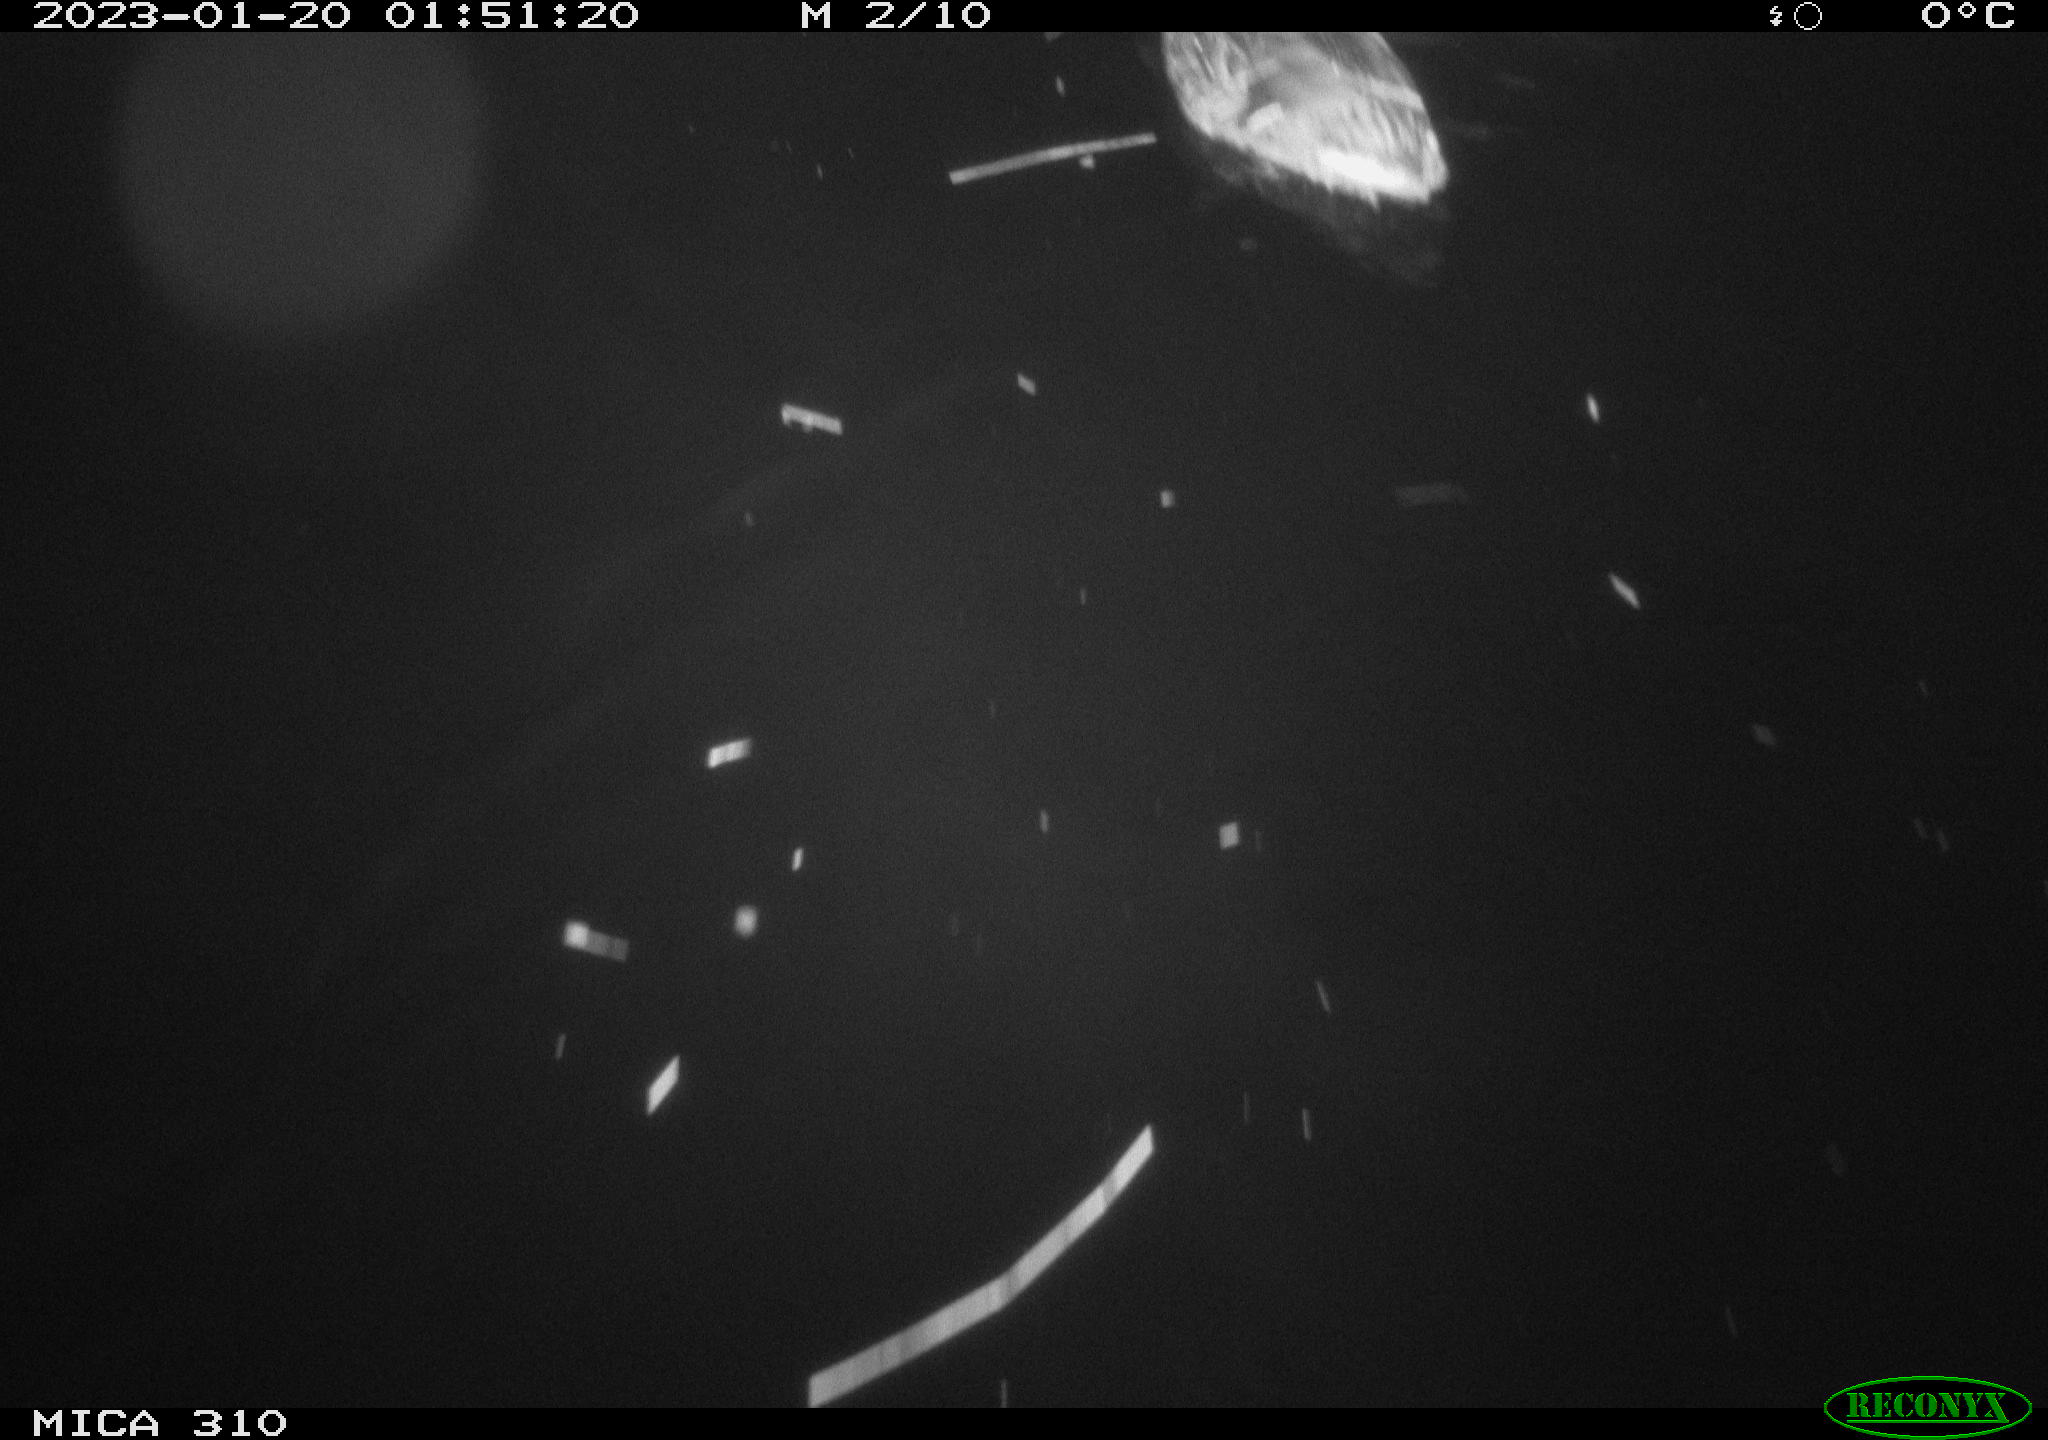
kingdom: Animalia
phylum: Chordata
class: Aves
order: Anseriformes
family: Anatidae
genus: Anas
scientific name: Anas
